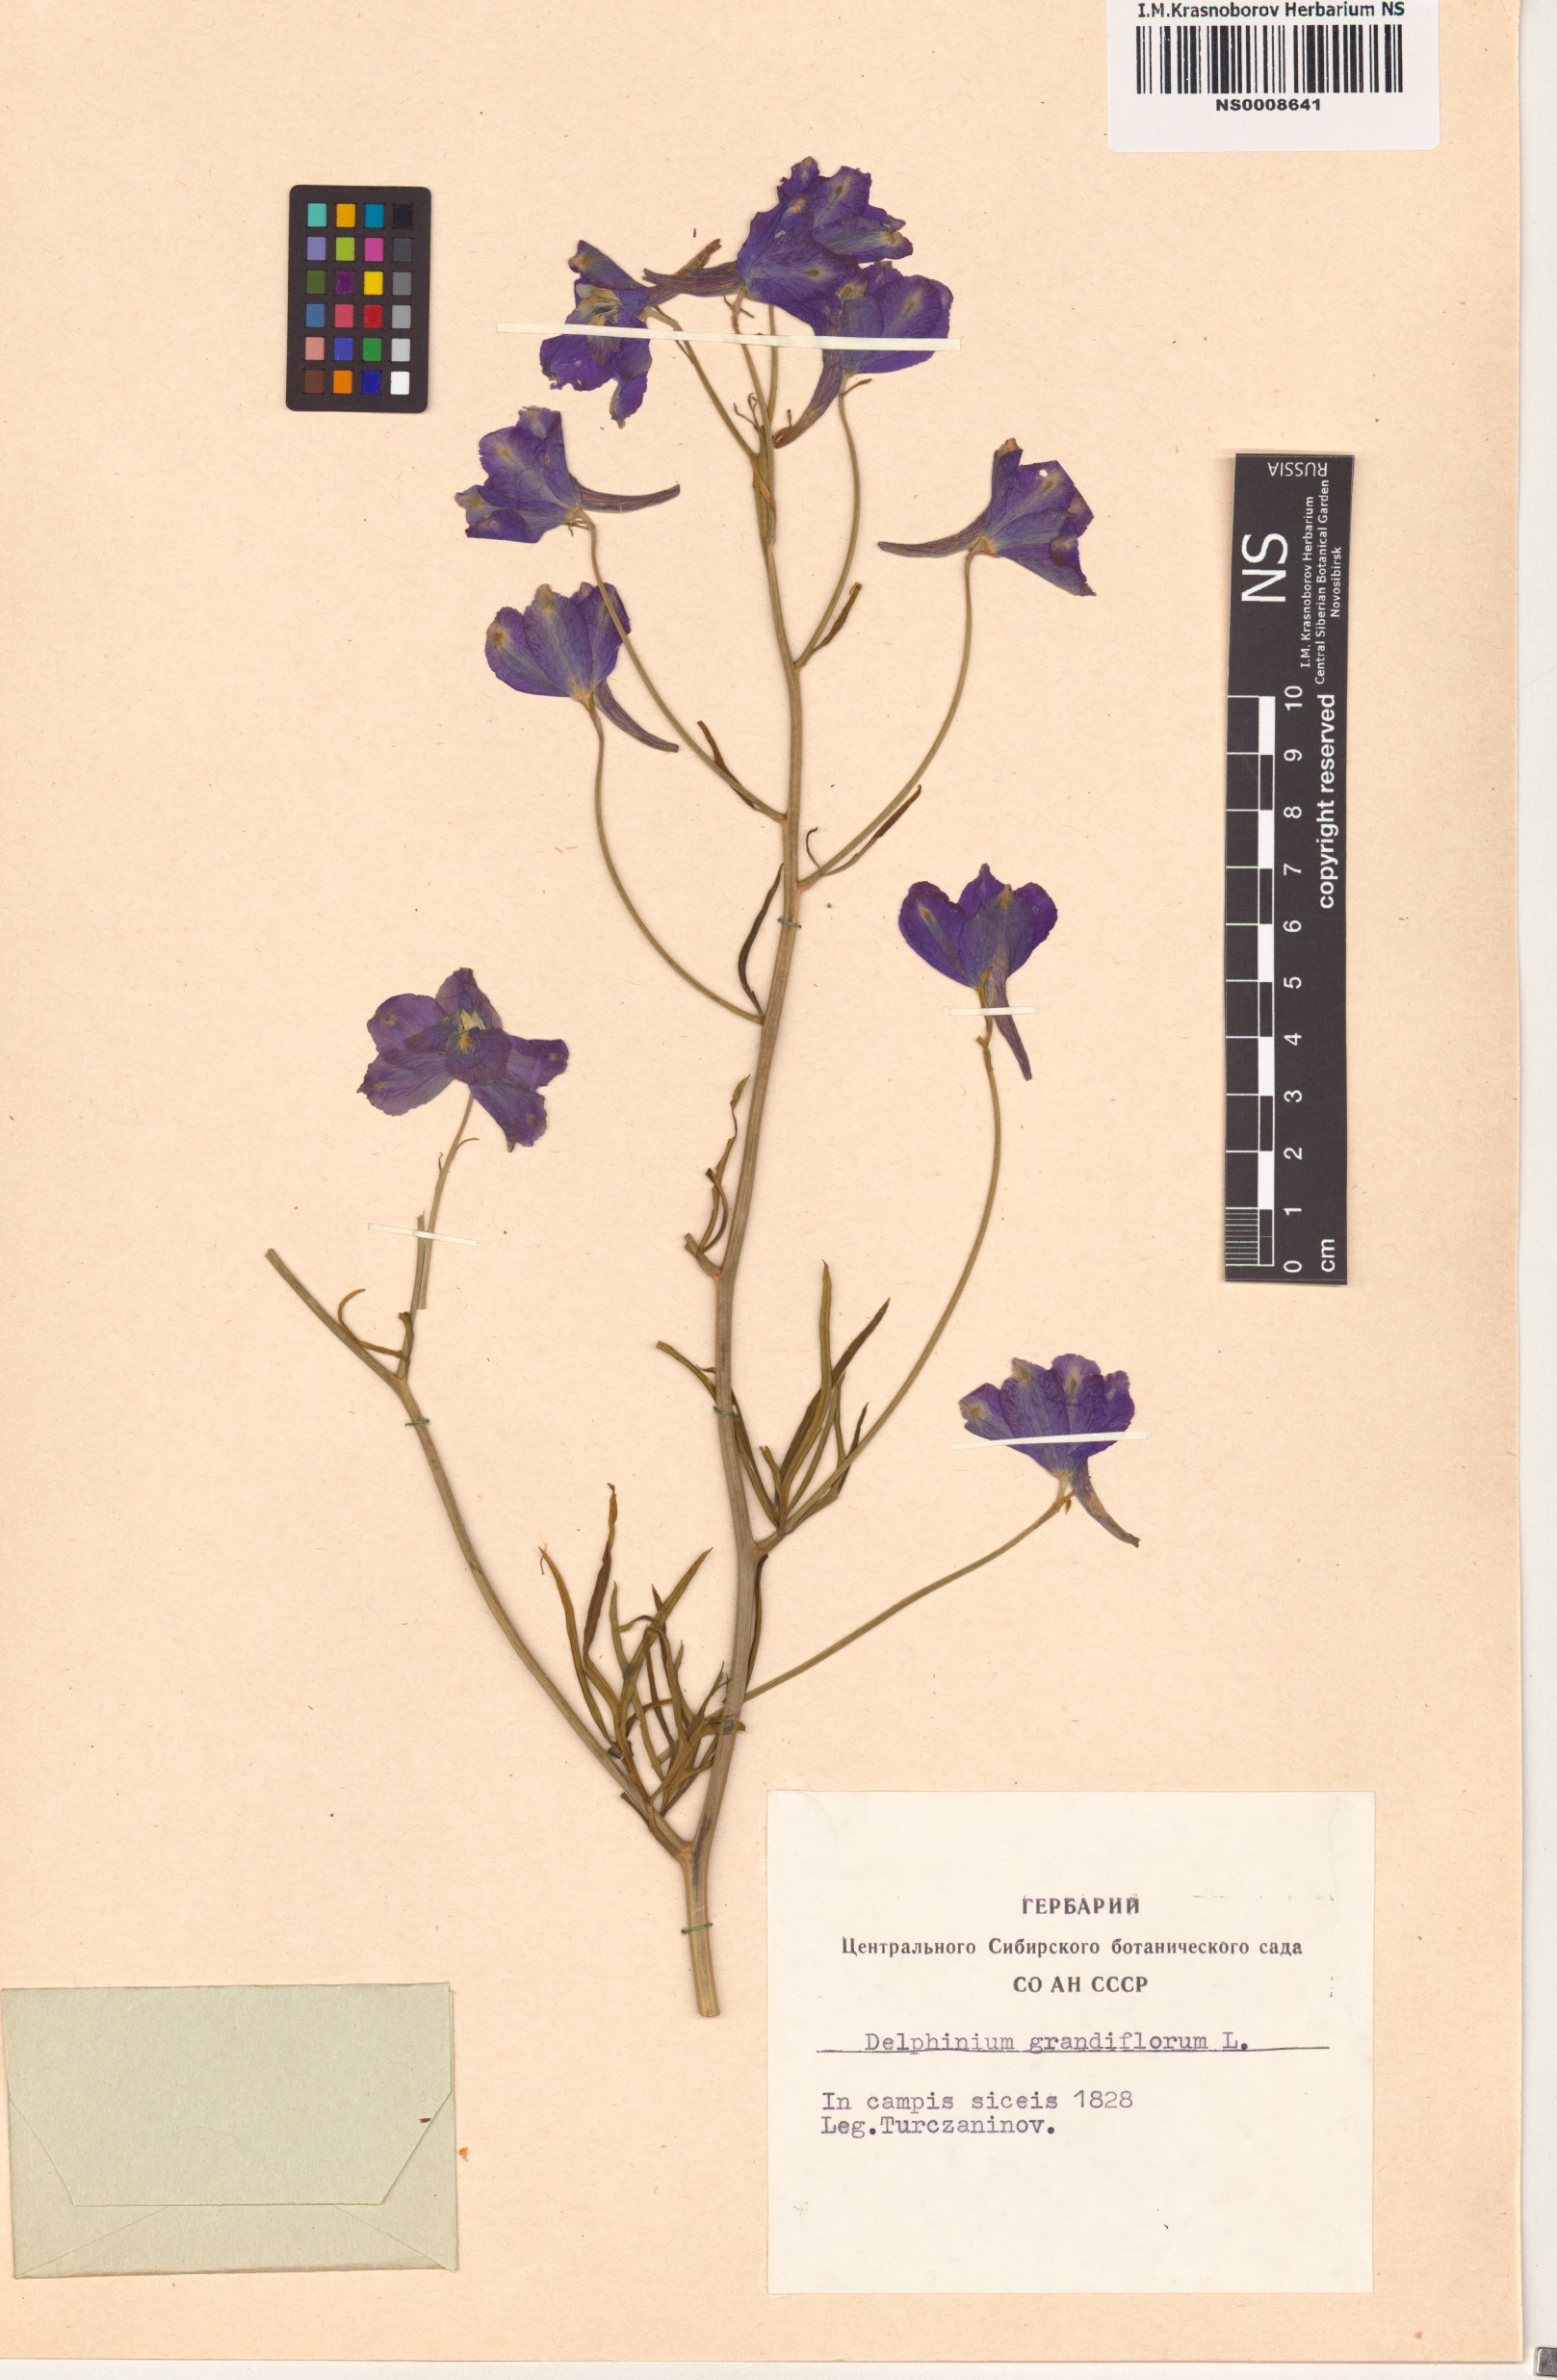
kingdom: Plantae
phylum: Tracheophyta
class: Magnoliopsida
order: Ranunculales
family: Ranunculaceae
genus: Delphinium
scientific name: Delphinium grandiflorum
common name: Siberian larkspur
